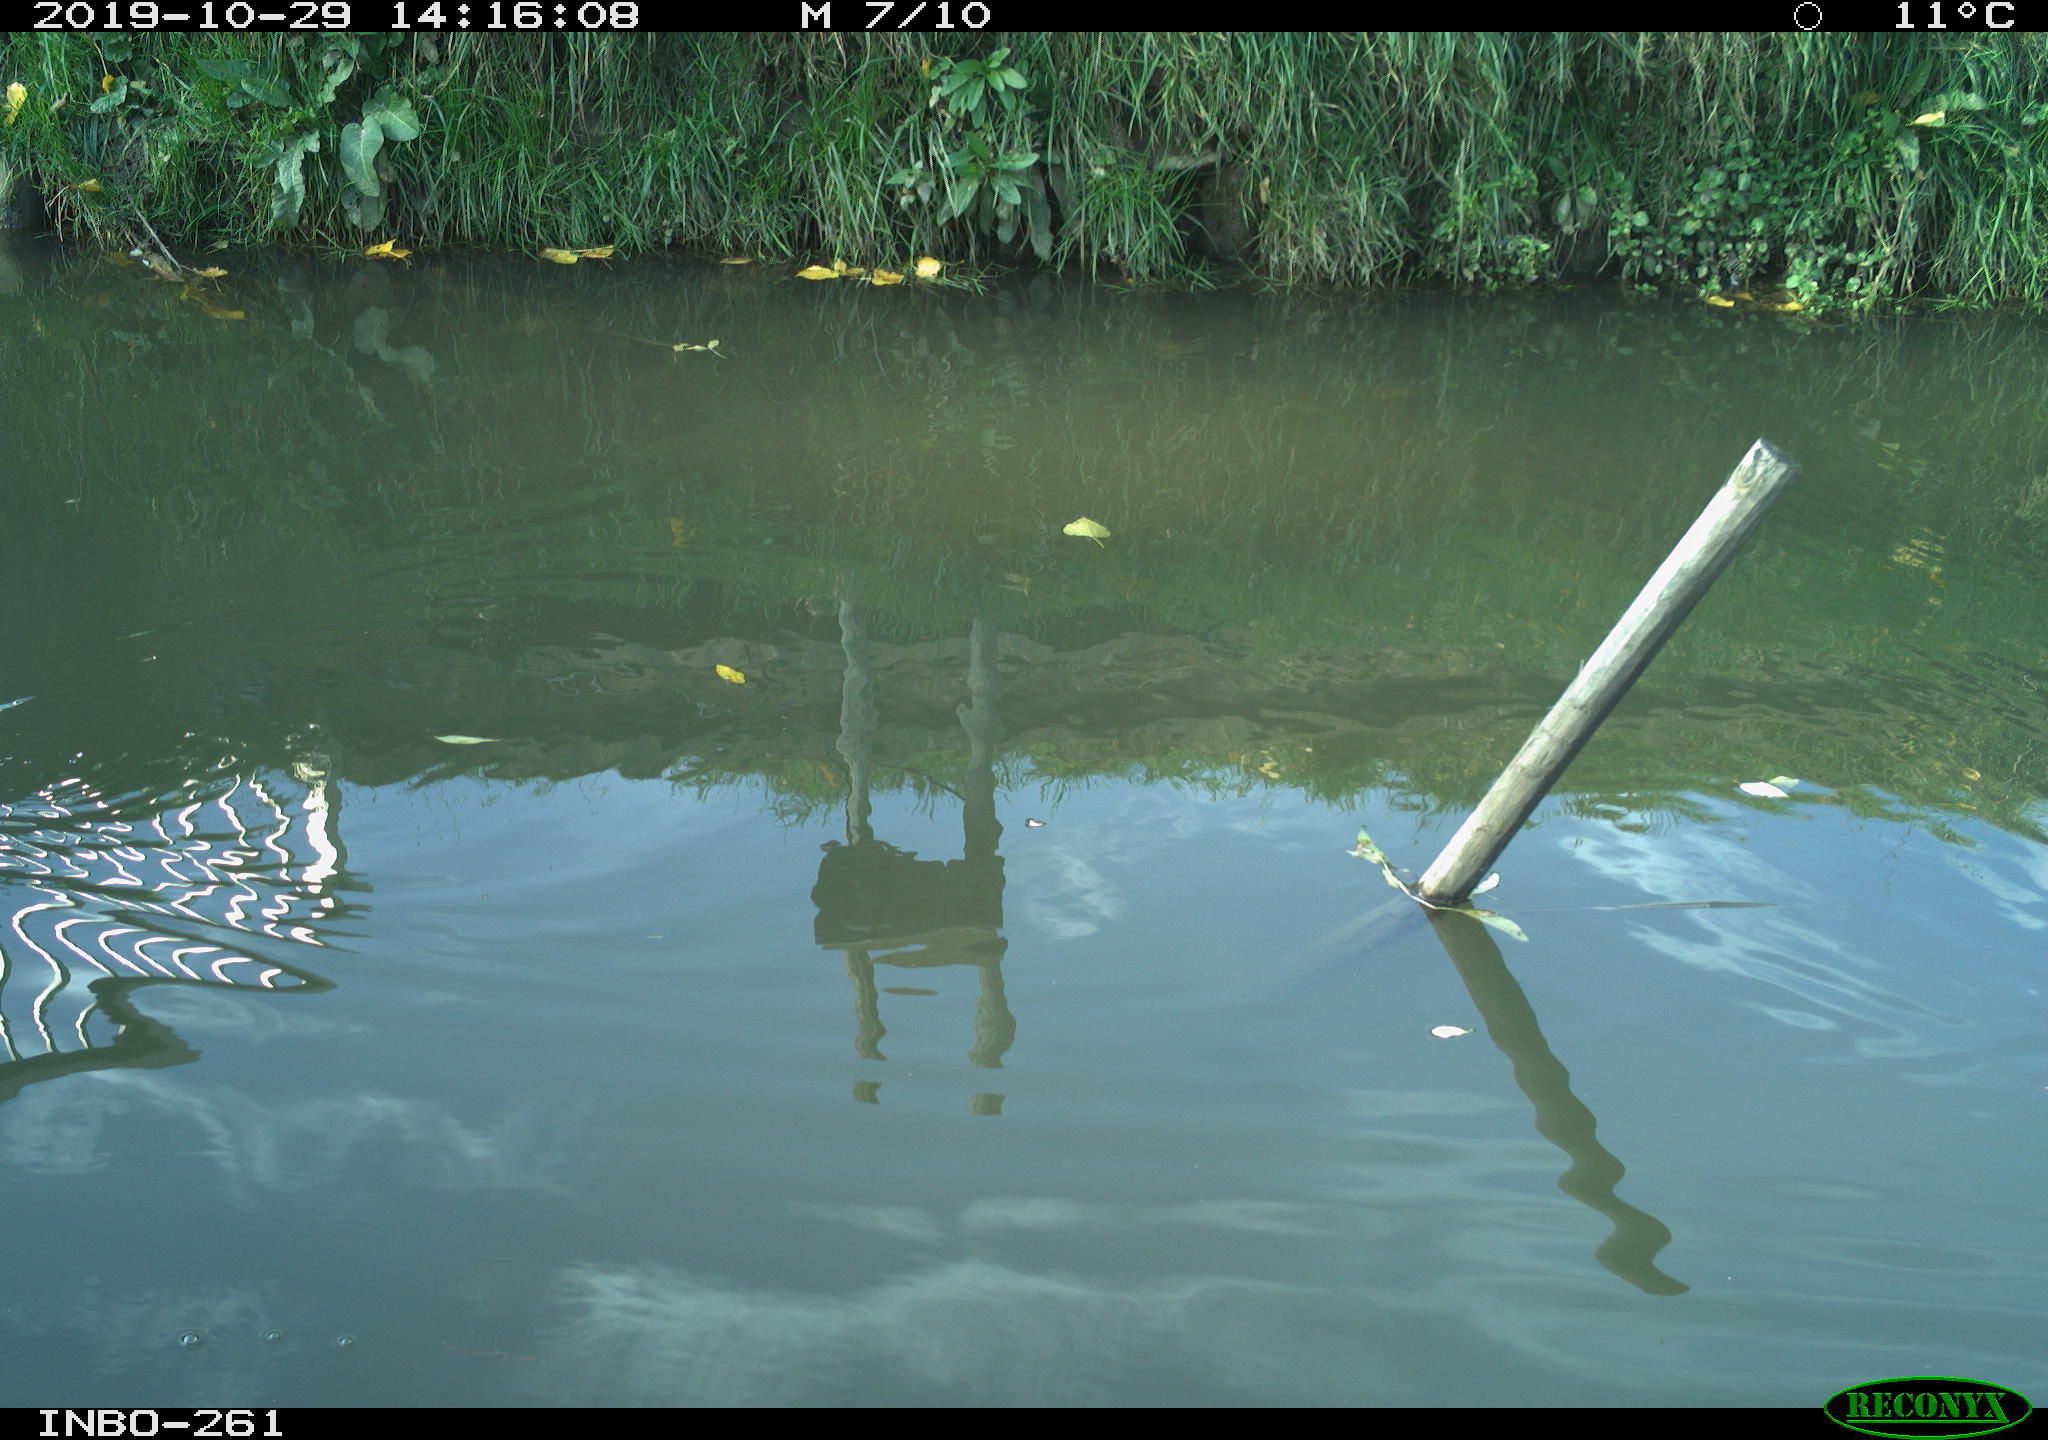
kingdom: Animalia
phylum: Chordata
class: Aves
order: Gruiformes
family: Rallidae
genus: Gallinula
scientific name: Gallinula chloropus
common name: Common moorhen
